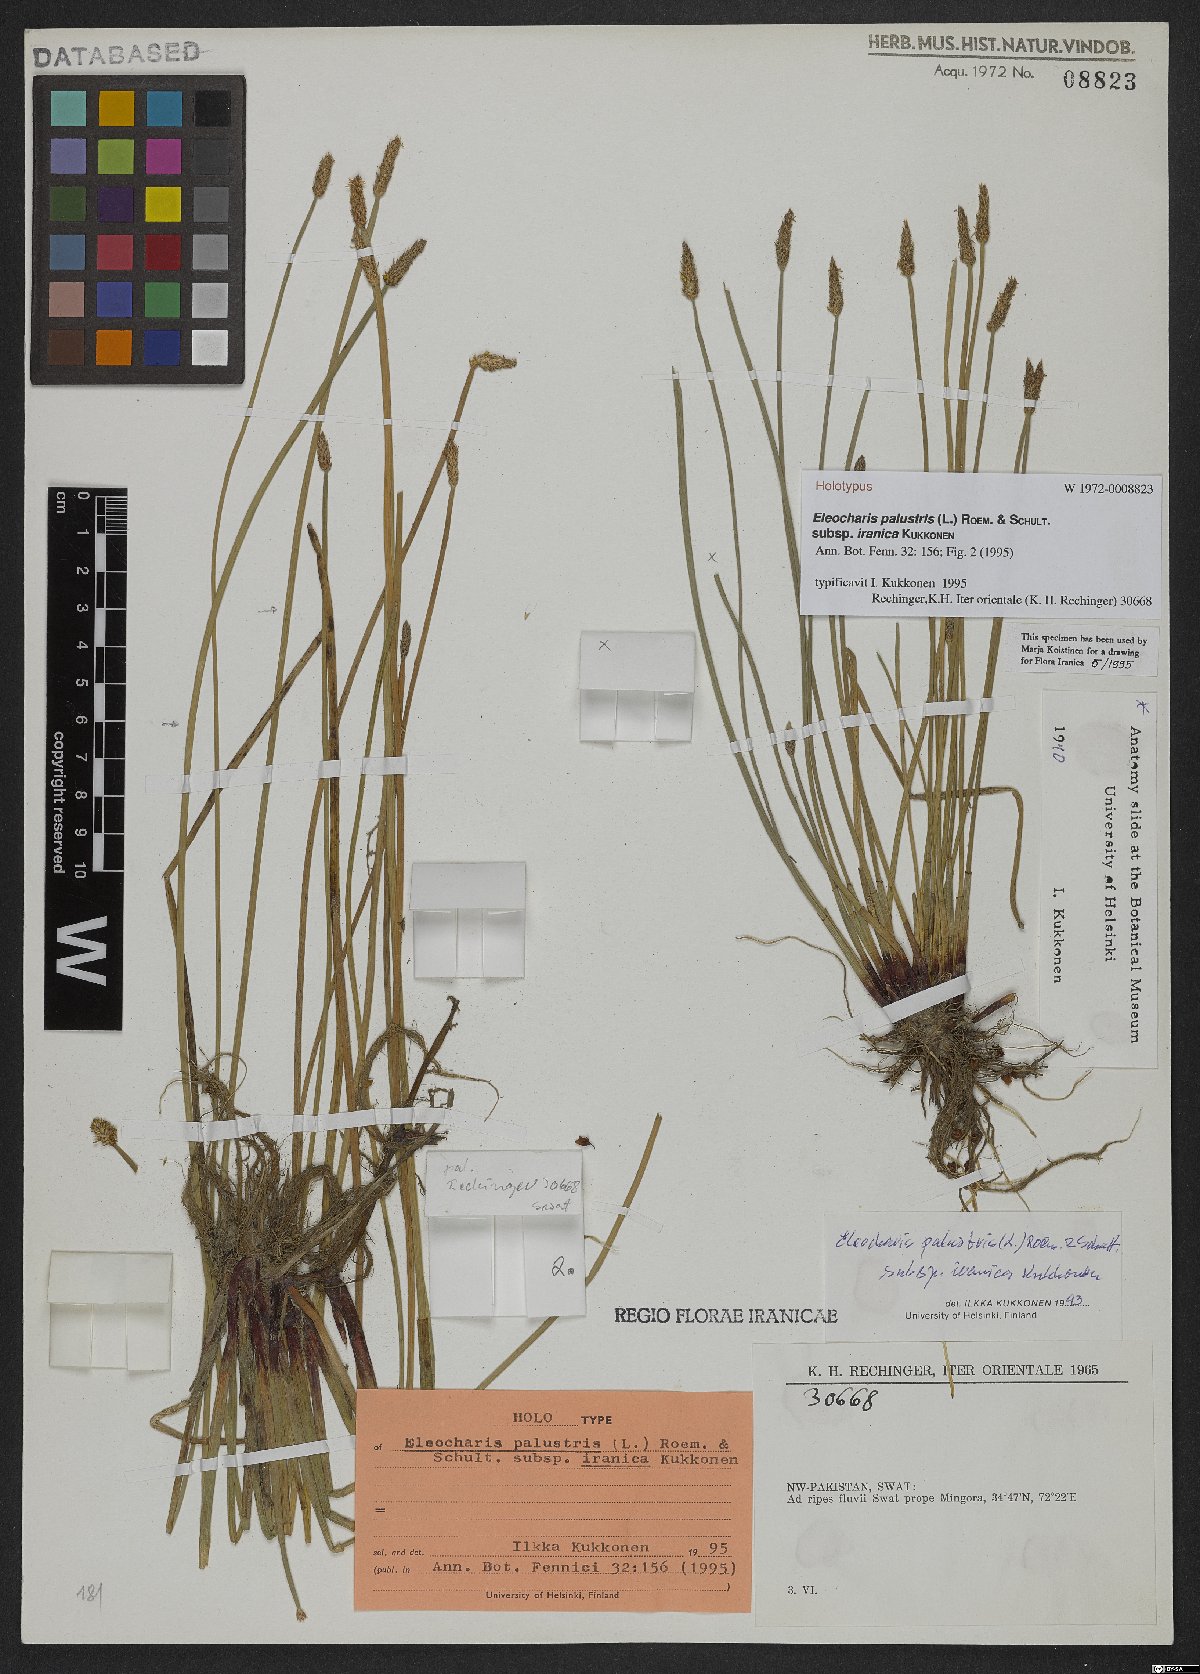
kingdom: Plantae
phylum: Tracheophyta
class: Liliopsida
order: Poales
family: Cyperaceae
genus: Eleocharis
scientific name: Eleocharis palustris
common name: Common spike-rush
